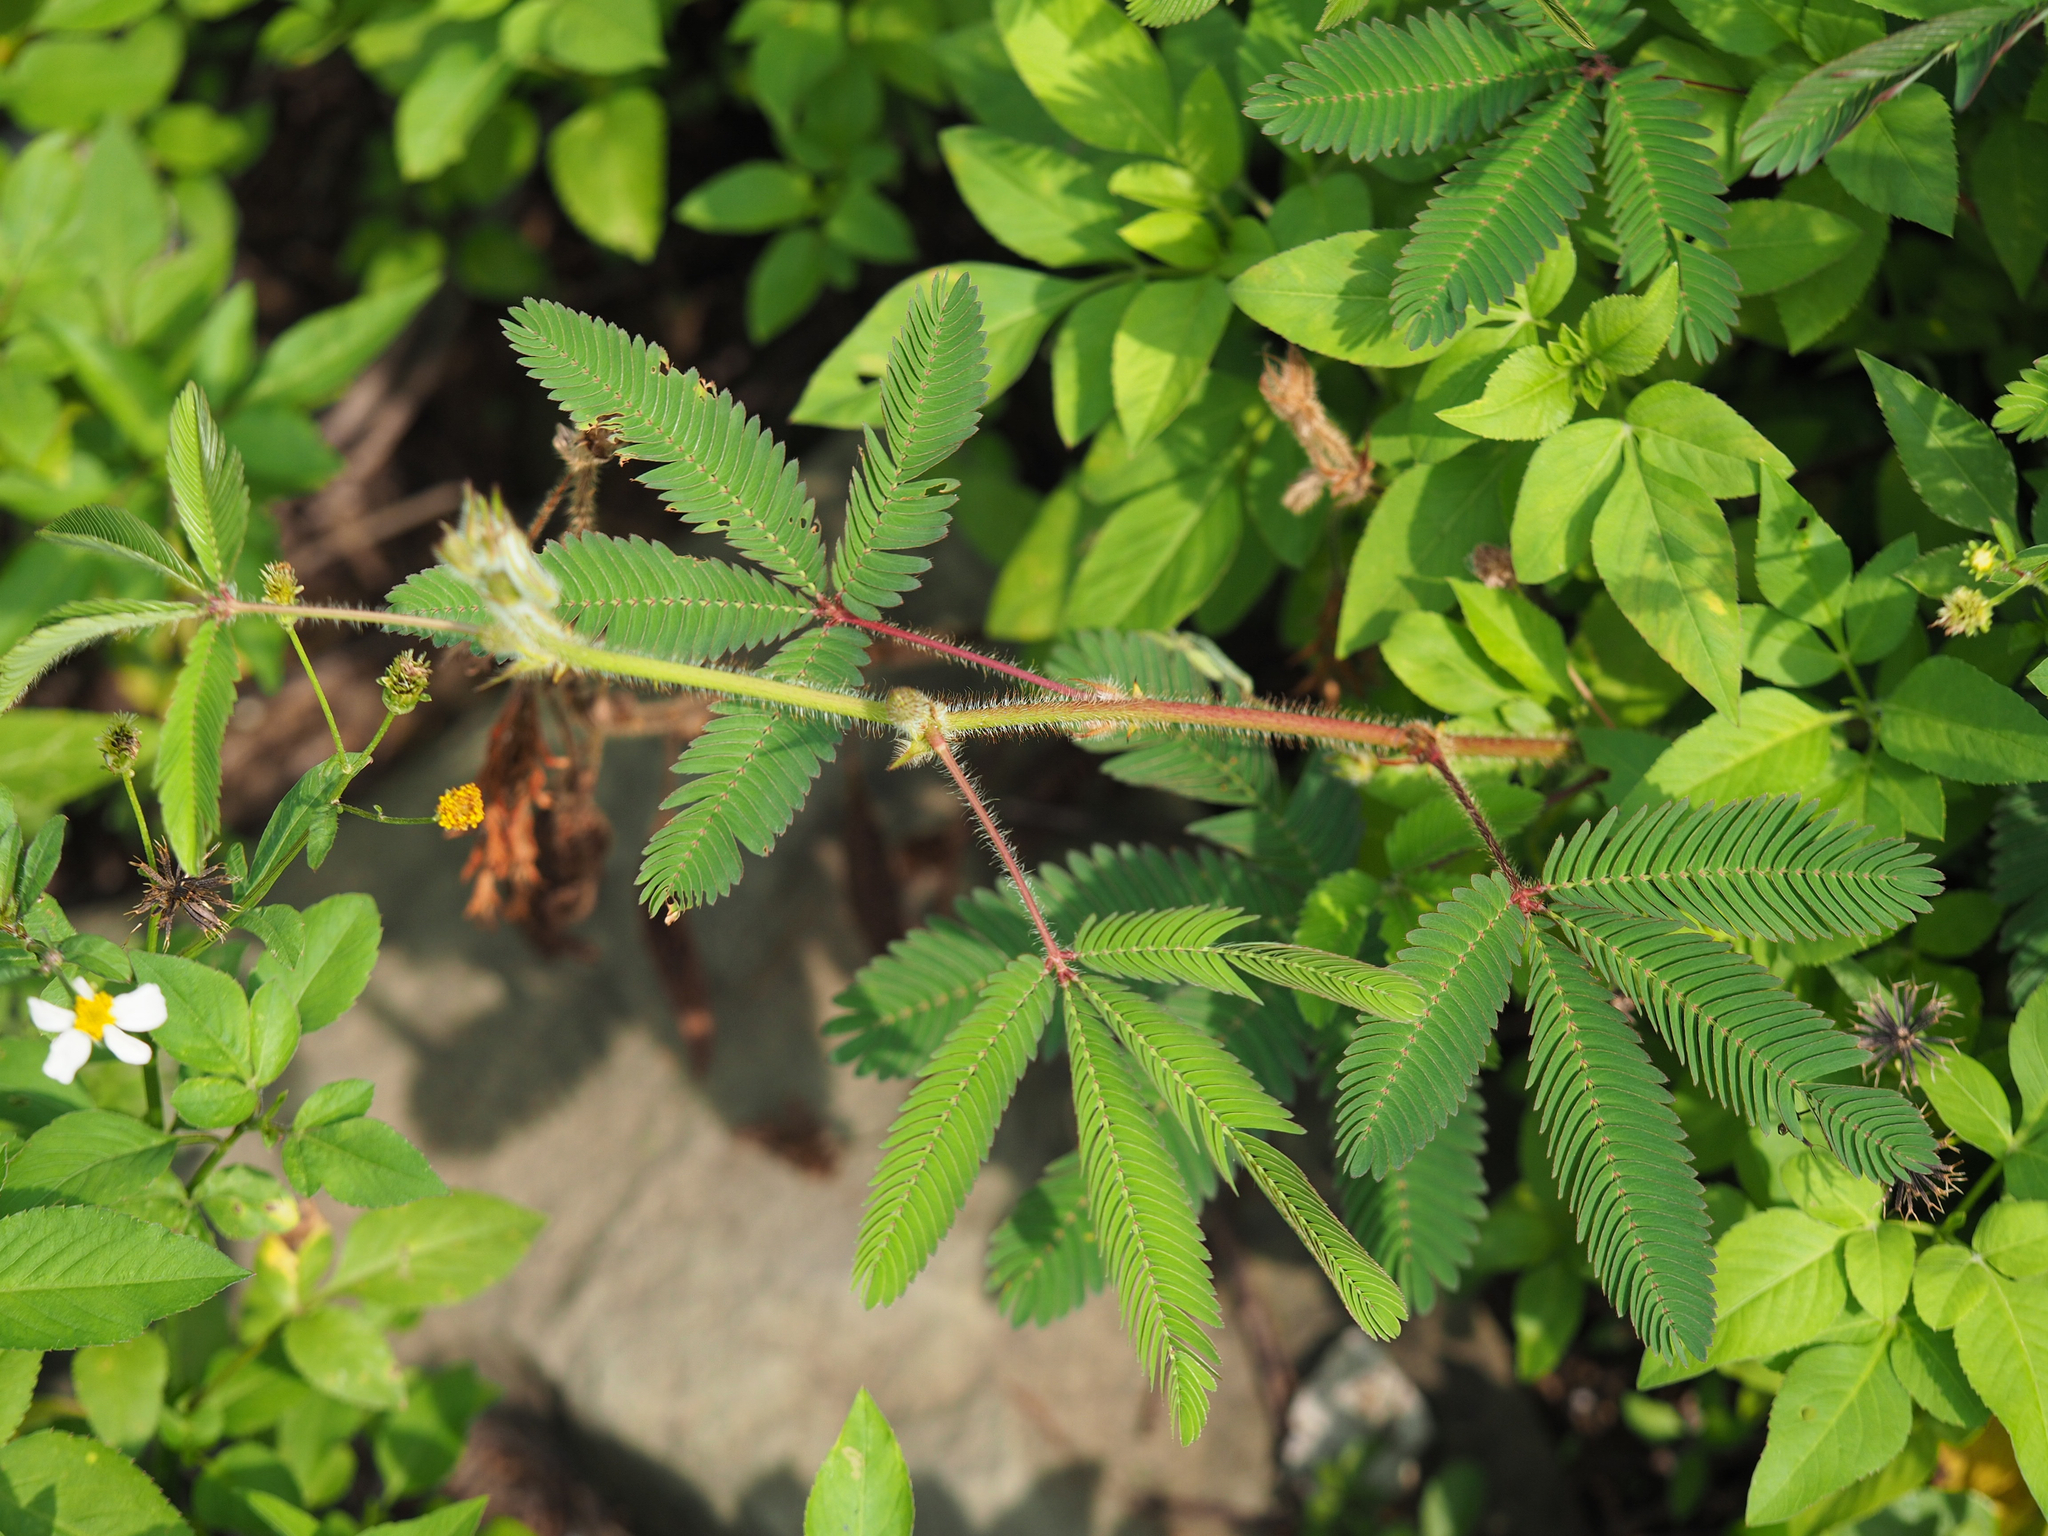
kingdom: Plantae
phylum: Tracheophyta
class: Magnoliopsida
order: Fabales
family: Fabaceae
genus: Mimosa
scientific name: Mimosa pudica
